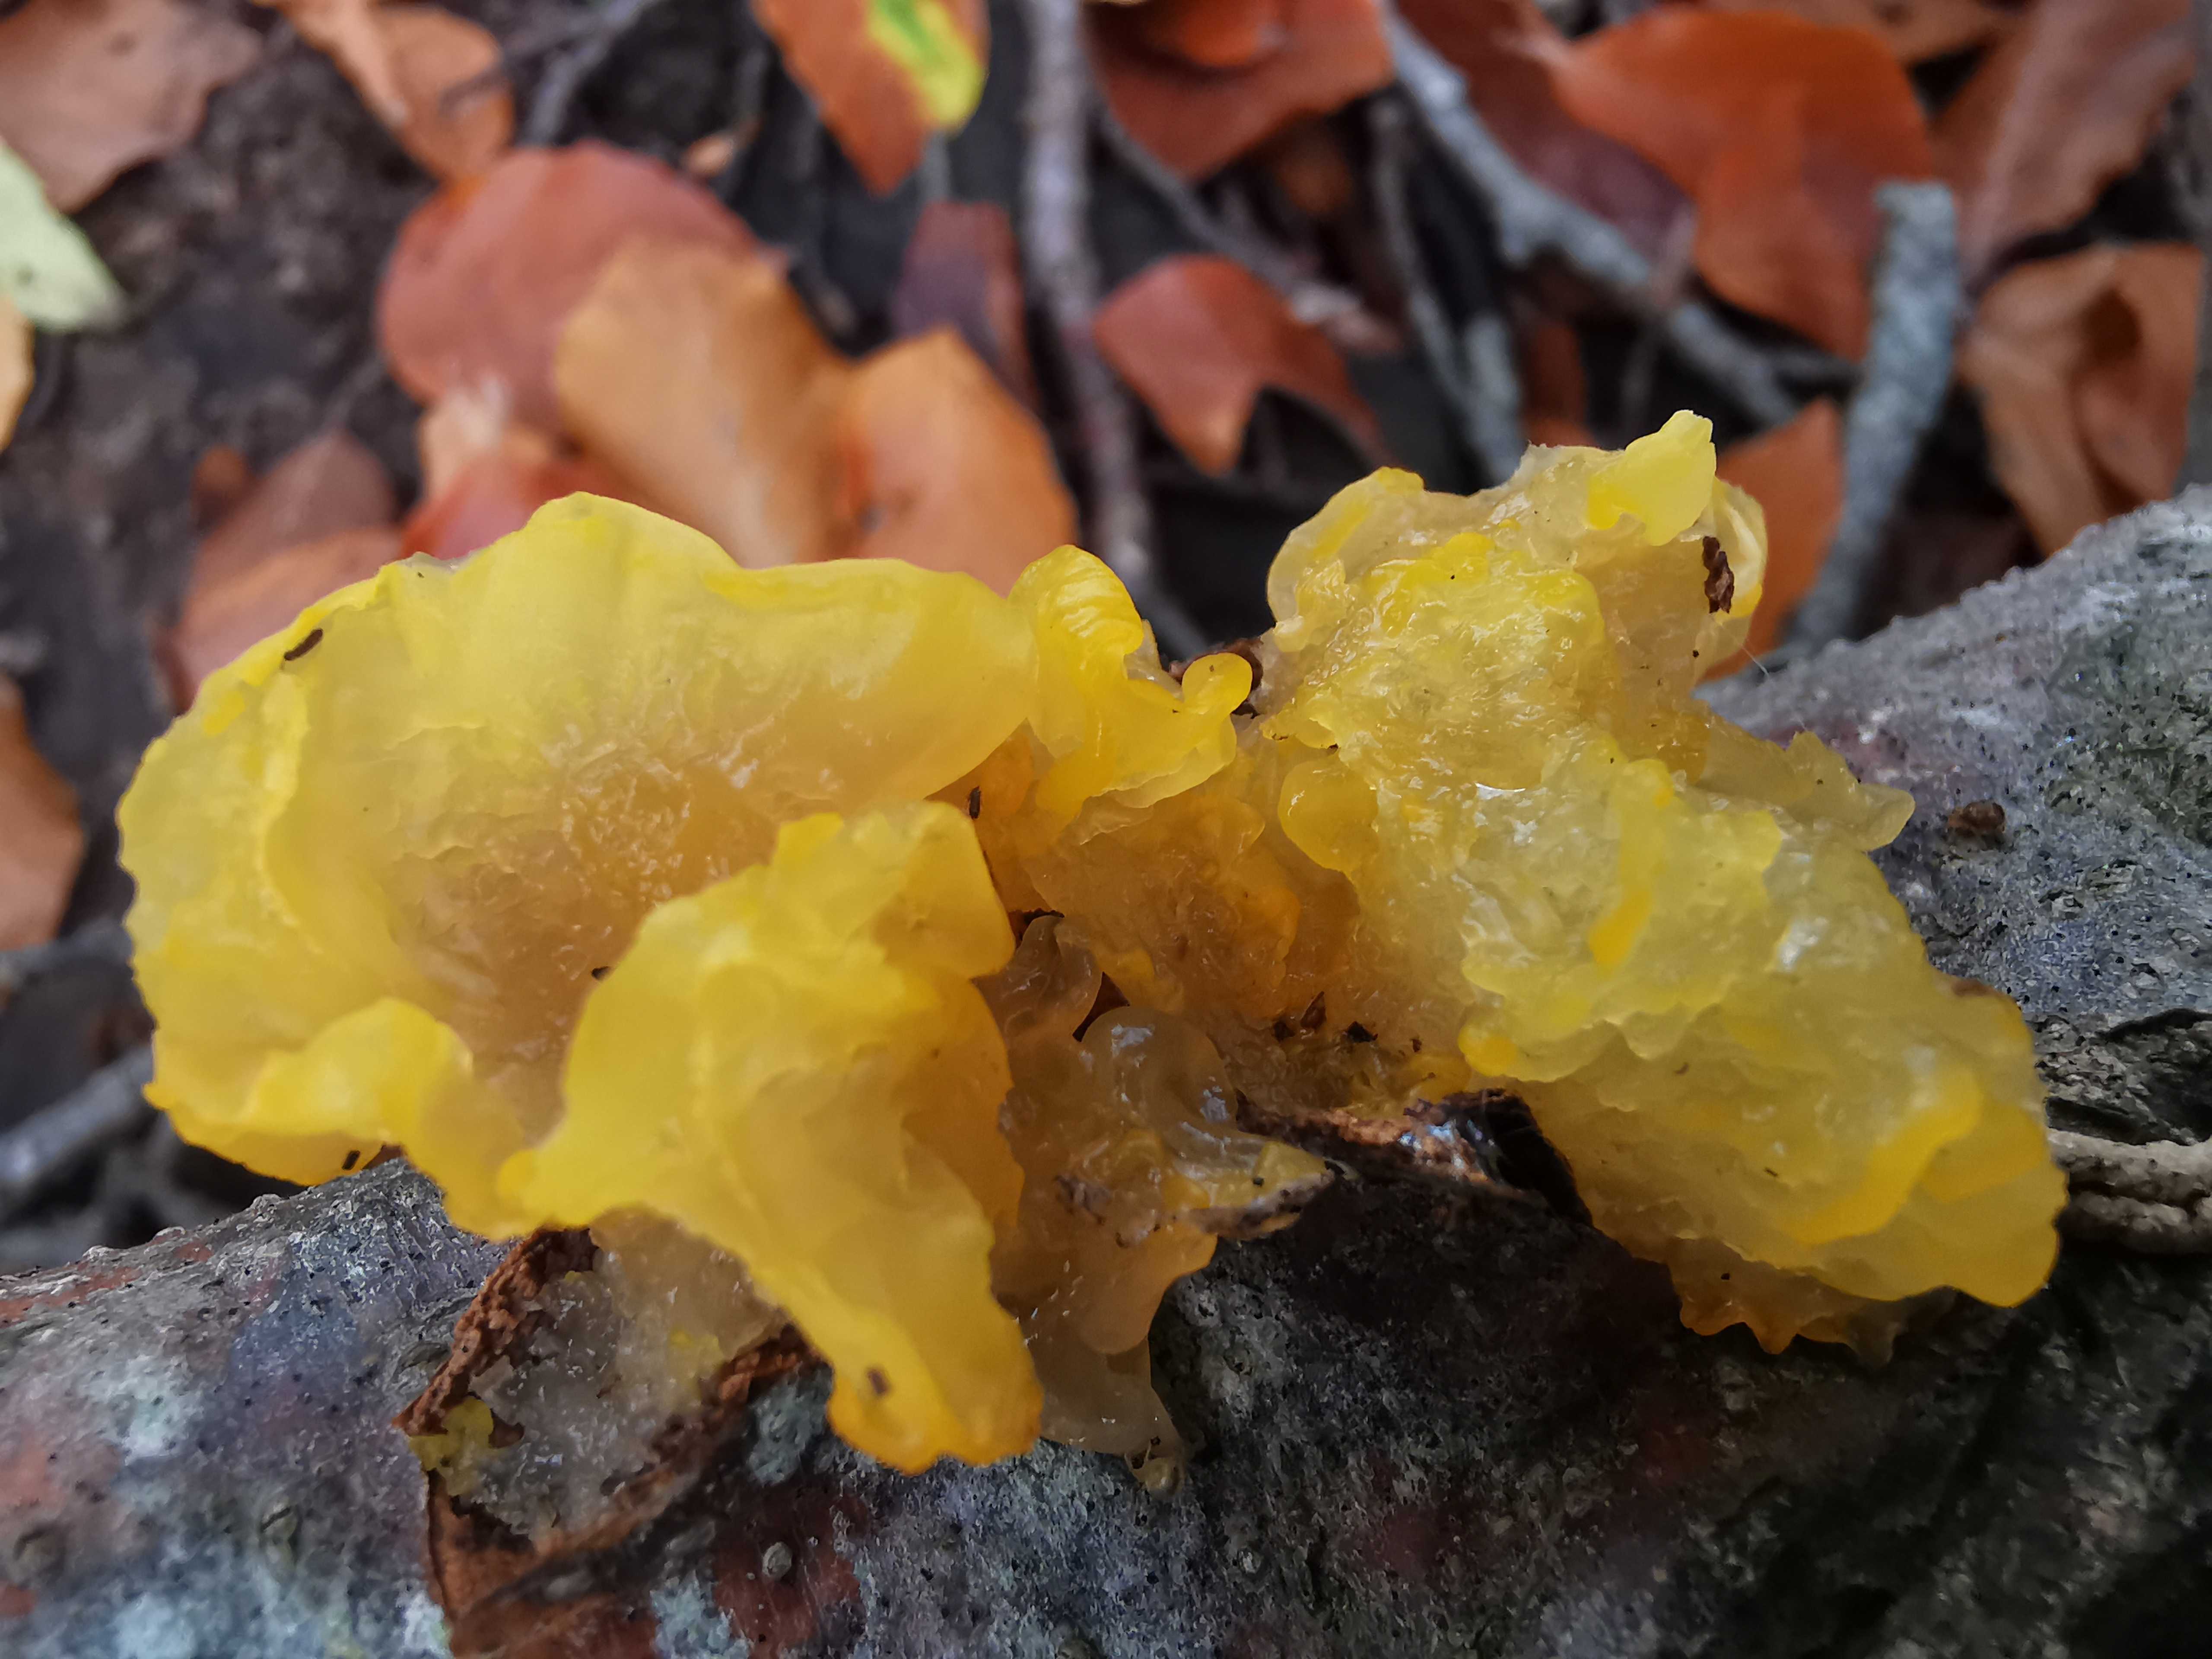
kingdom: Fungi
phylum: Basidiomycota
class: Tremellomycetes
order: Tremellales
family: Tremellaceae
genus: Tremella
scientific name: Tremella mesenterica
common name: gul bævresvamp
